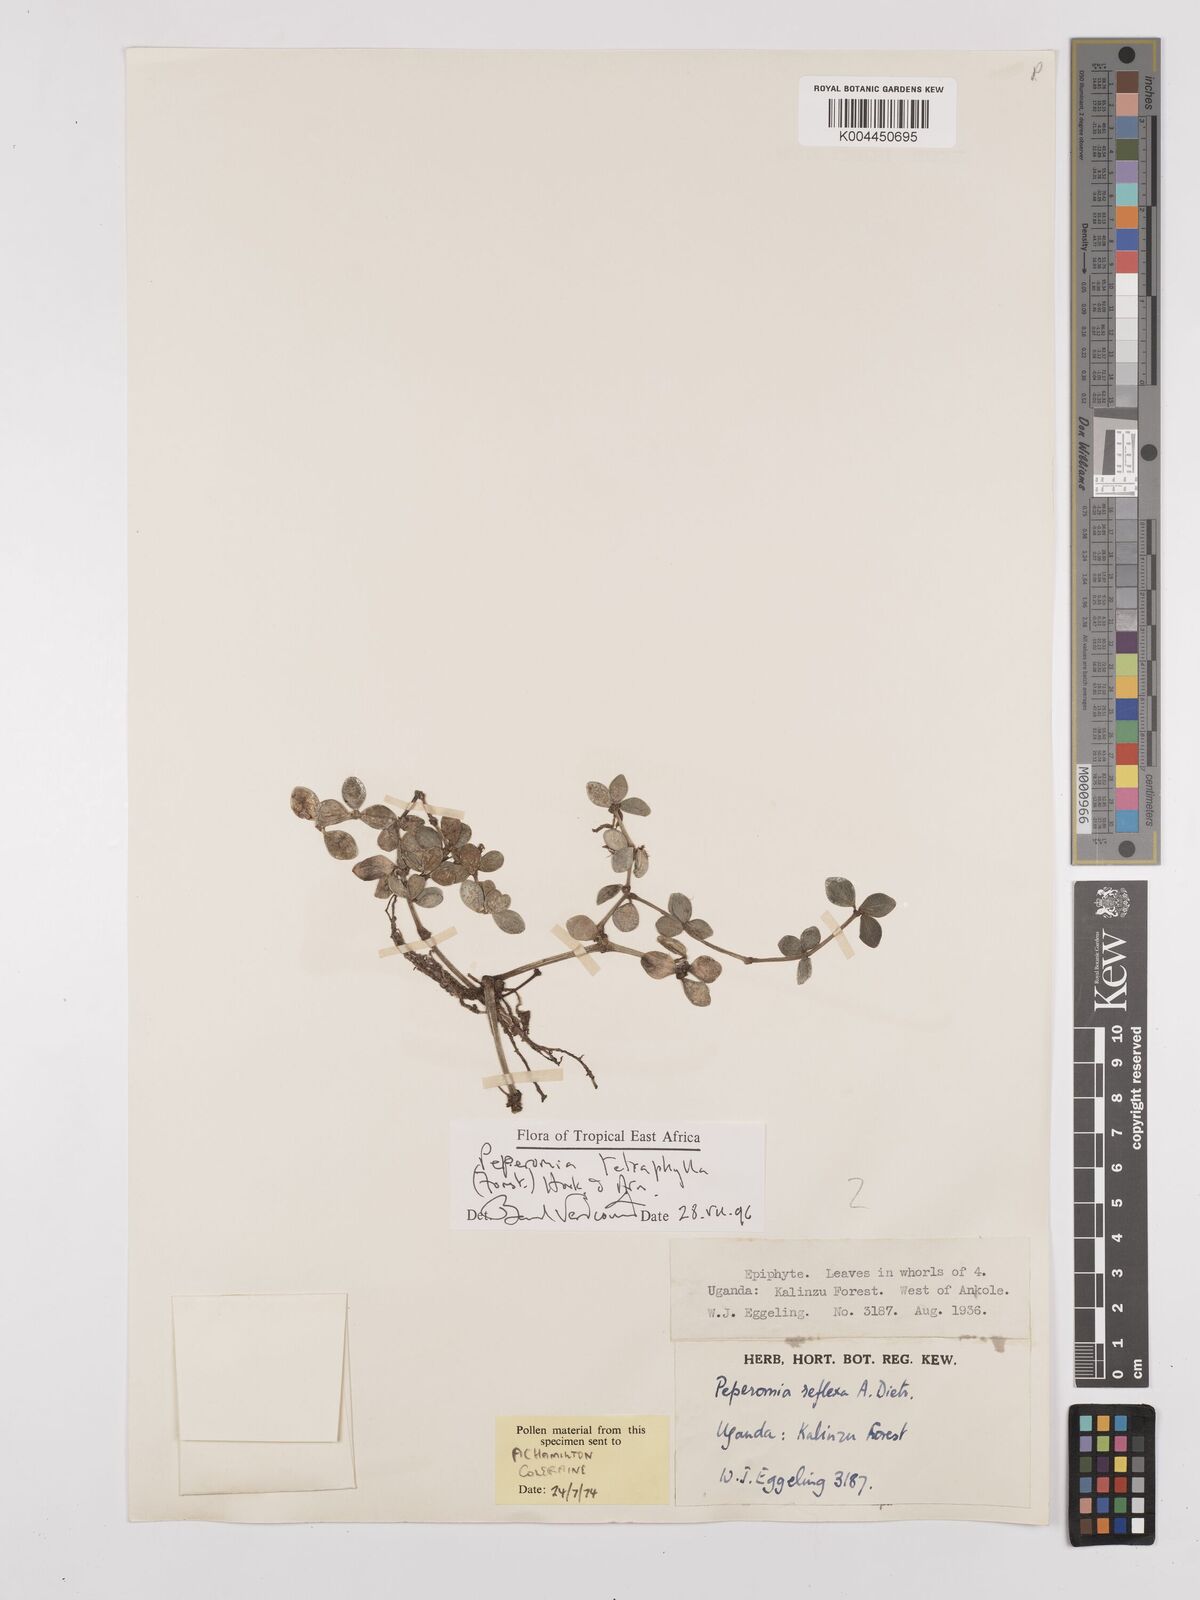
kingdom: Plantae
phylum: Tracheophyta
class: Magnoliopsida
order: Piperales
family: Piperaceae
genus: Peperomia
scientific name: Peperomia tetraphylla
